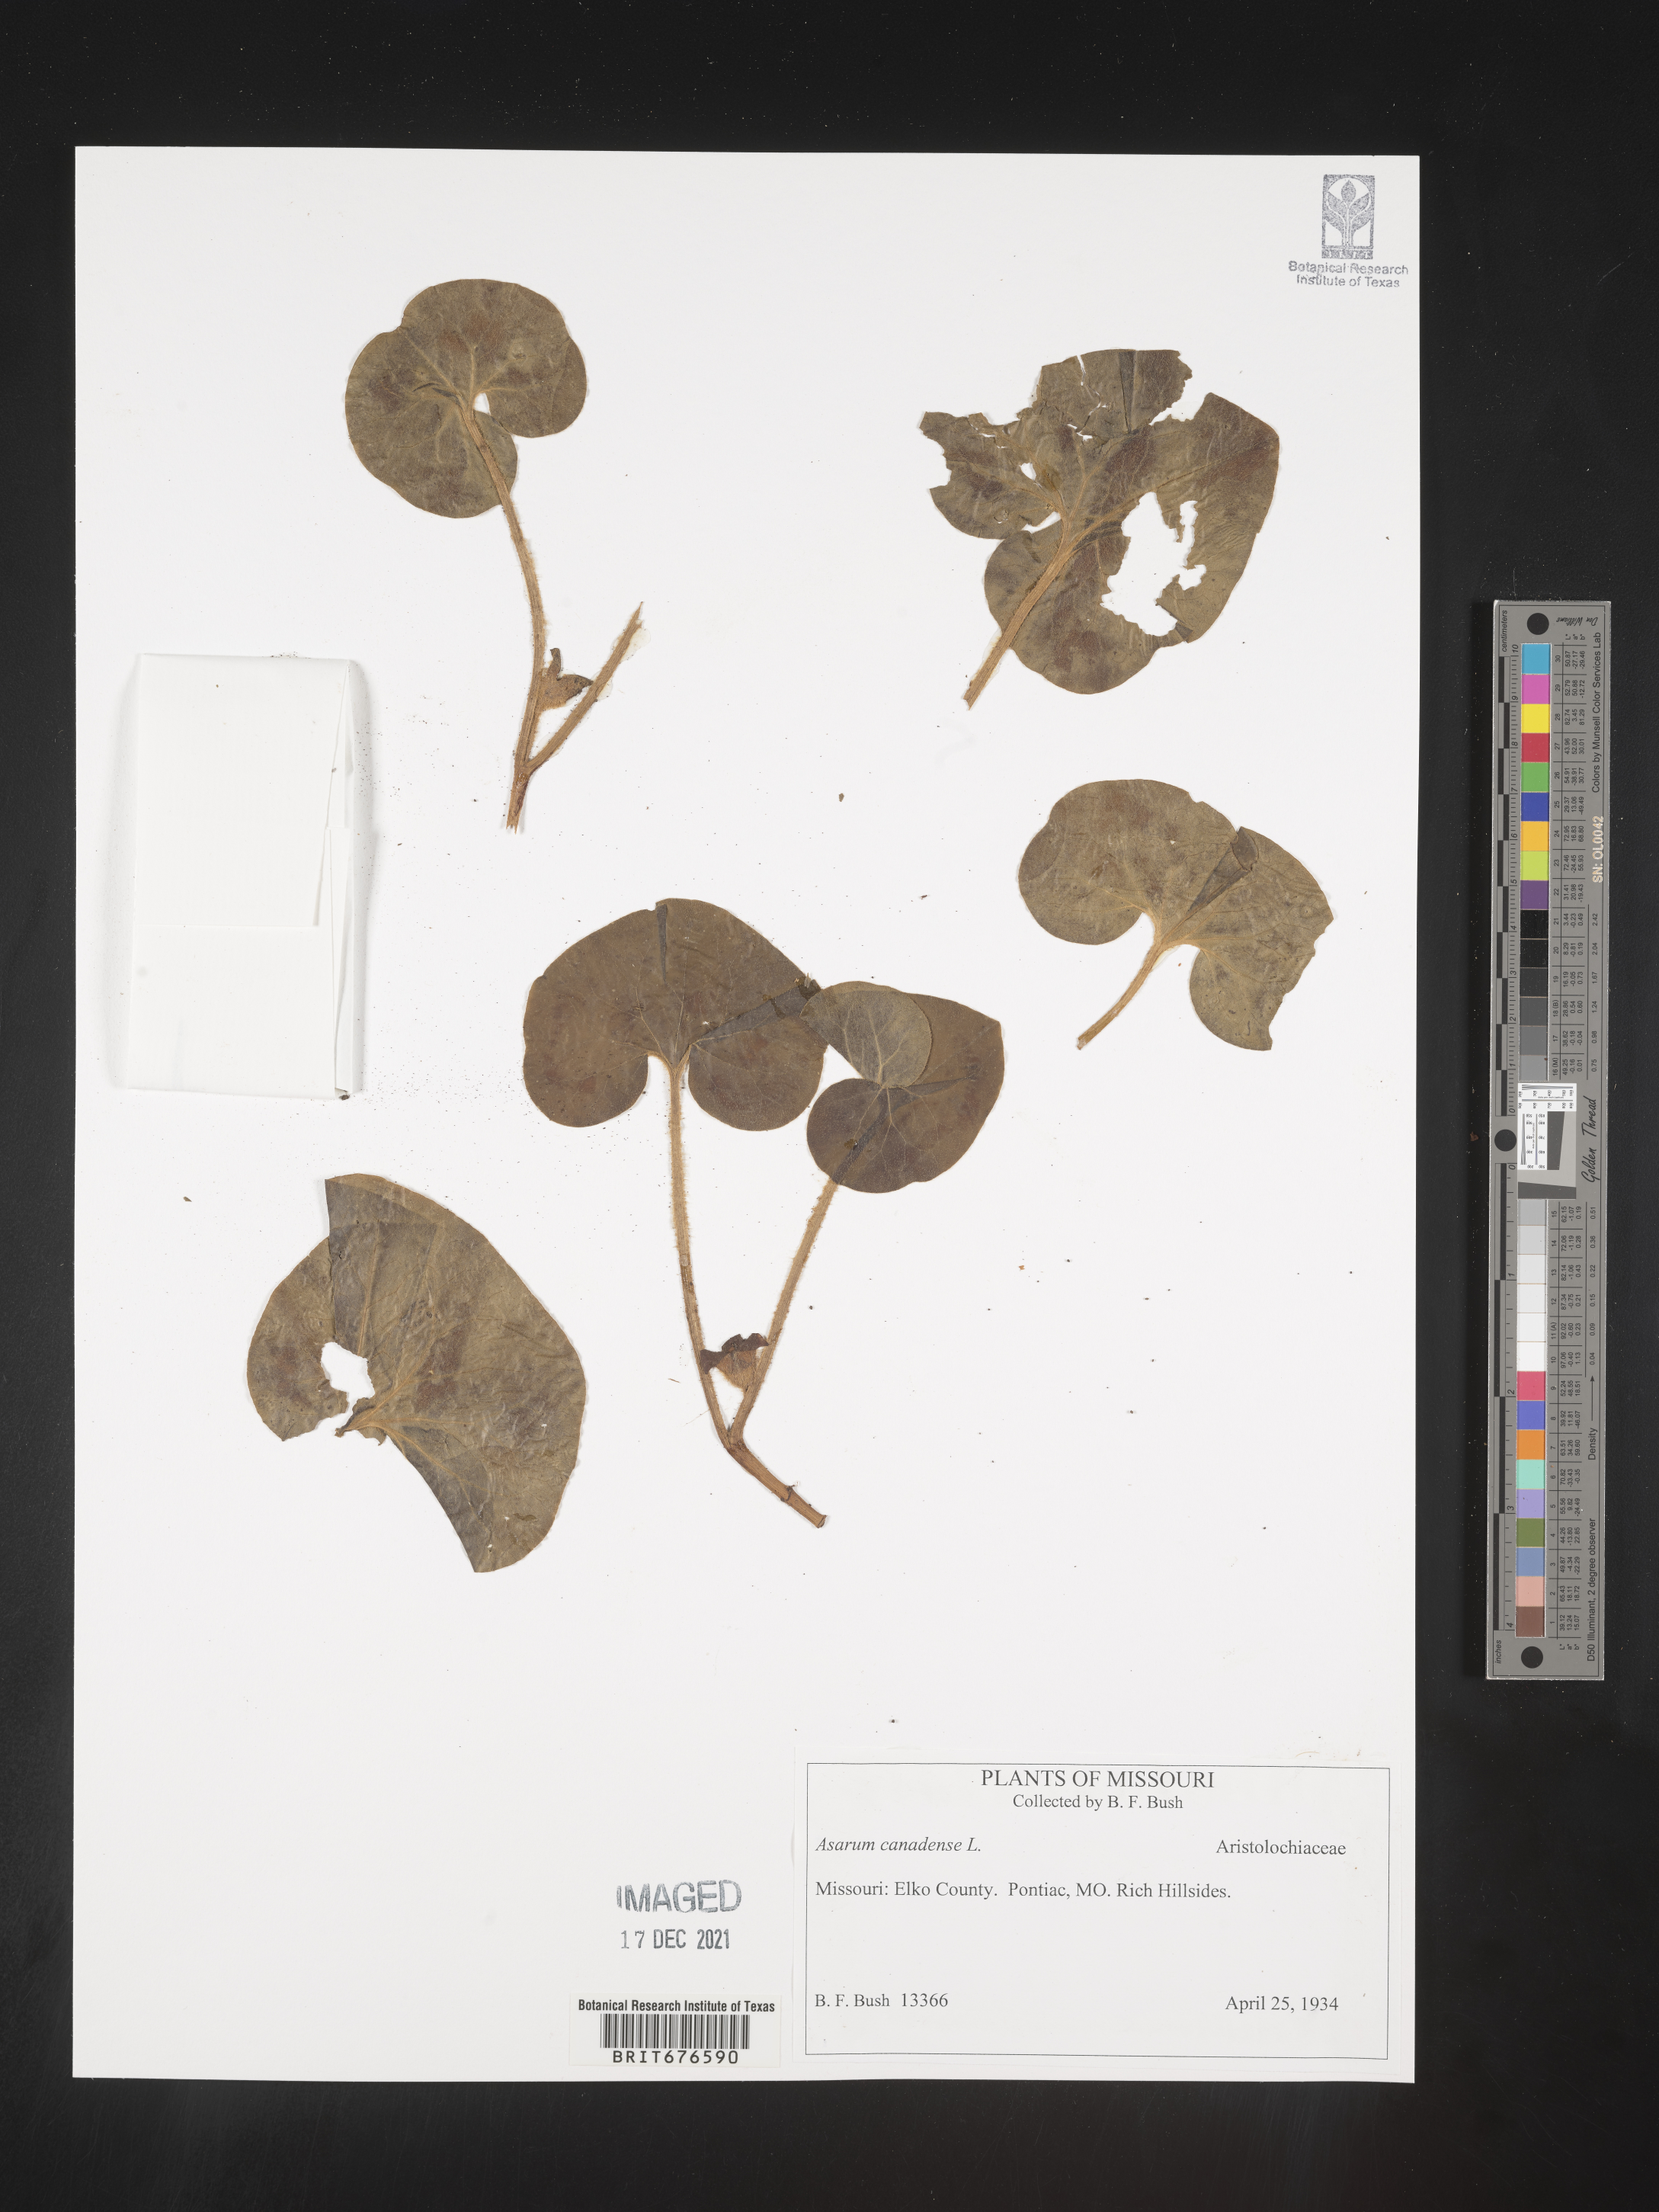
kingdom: Plantae
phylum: Tracheophyta
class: Magnoliopsida
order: Piperales
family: Aristolochiaceae
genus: Asarum
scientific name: Asarum canadense
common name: Wild ginger
